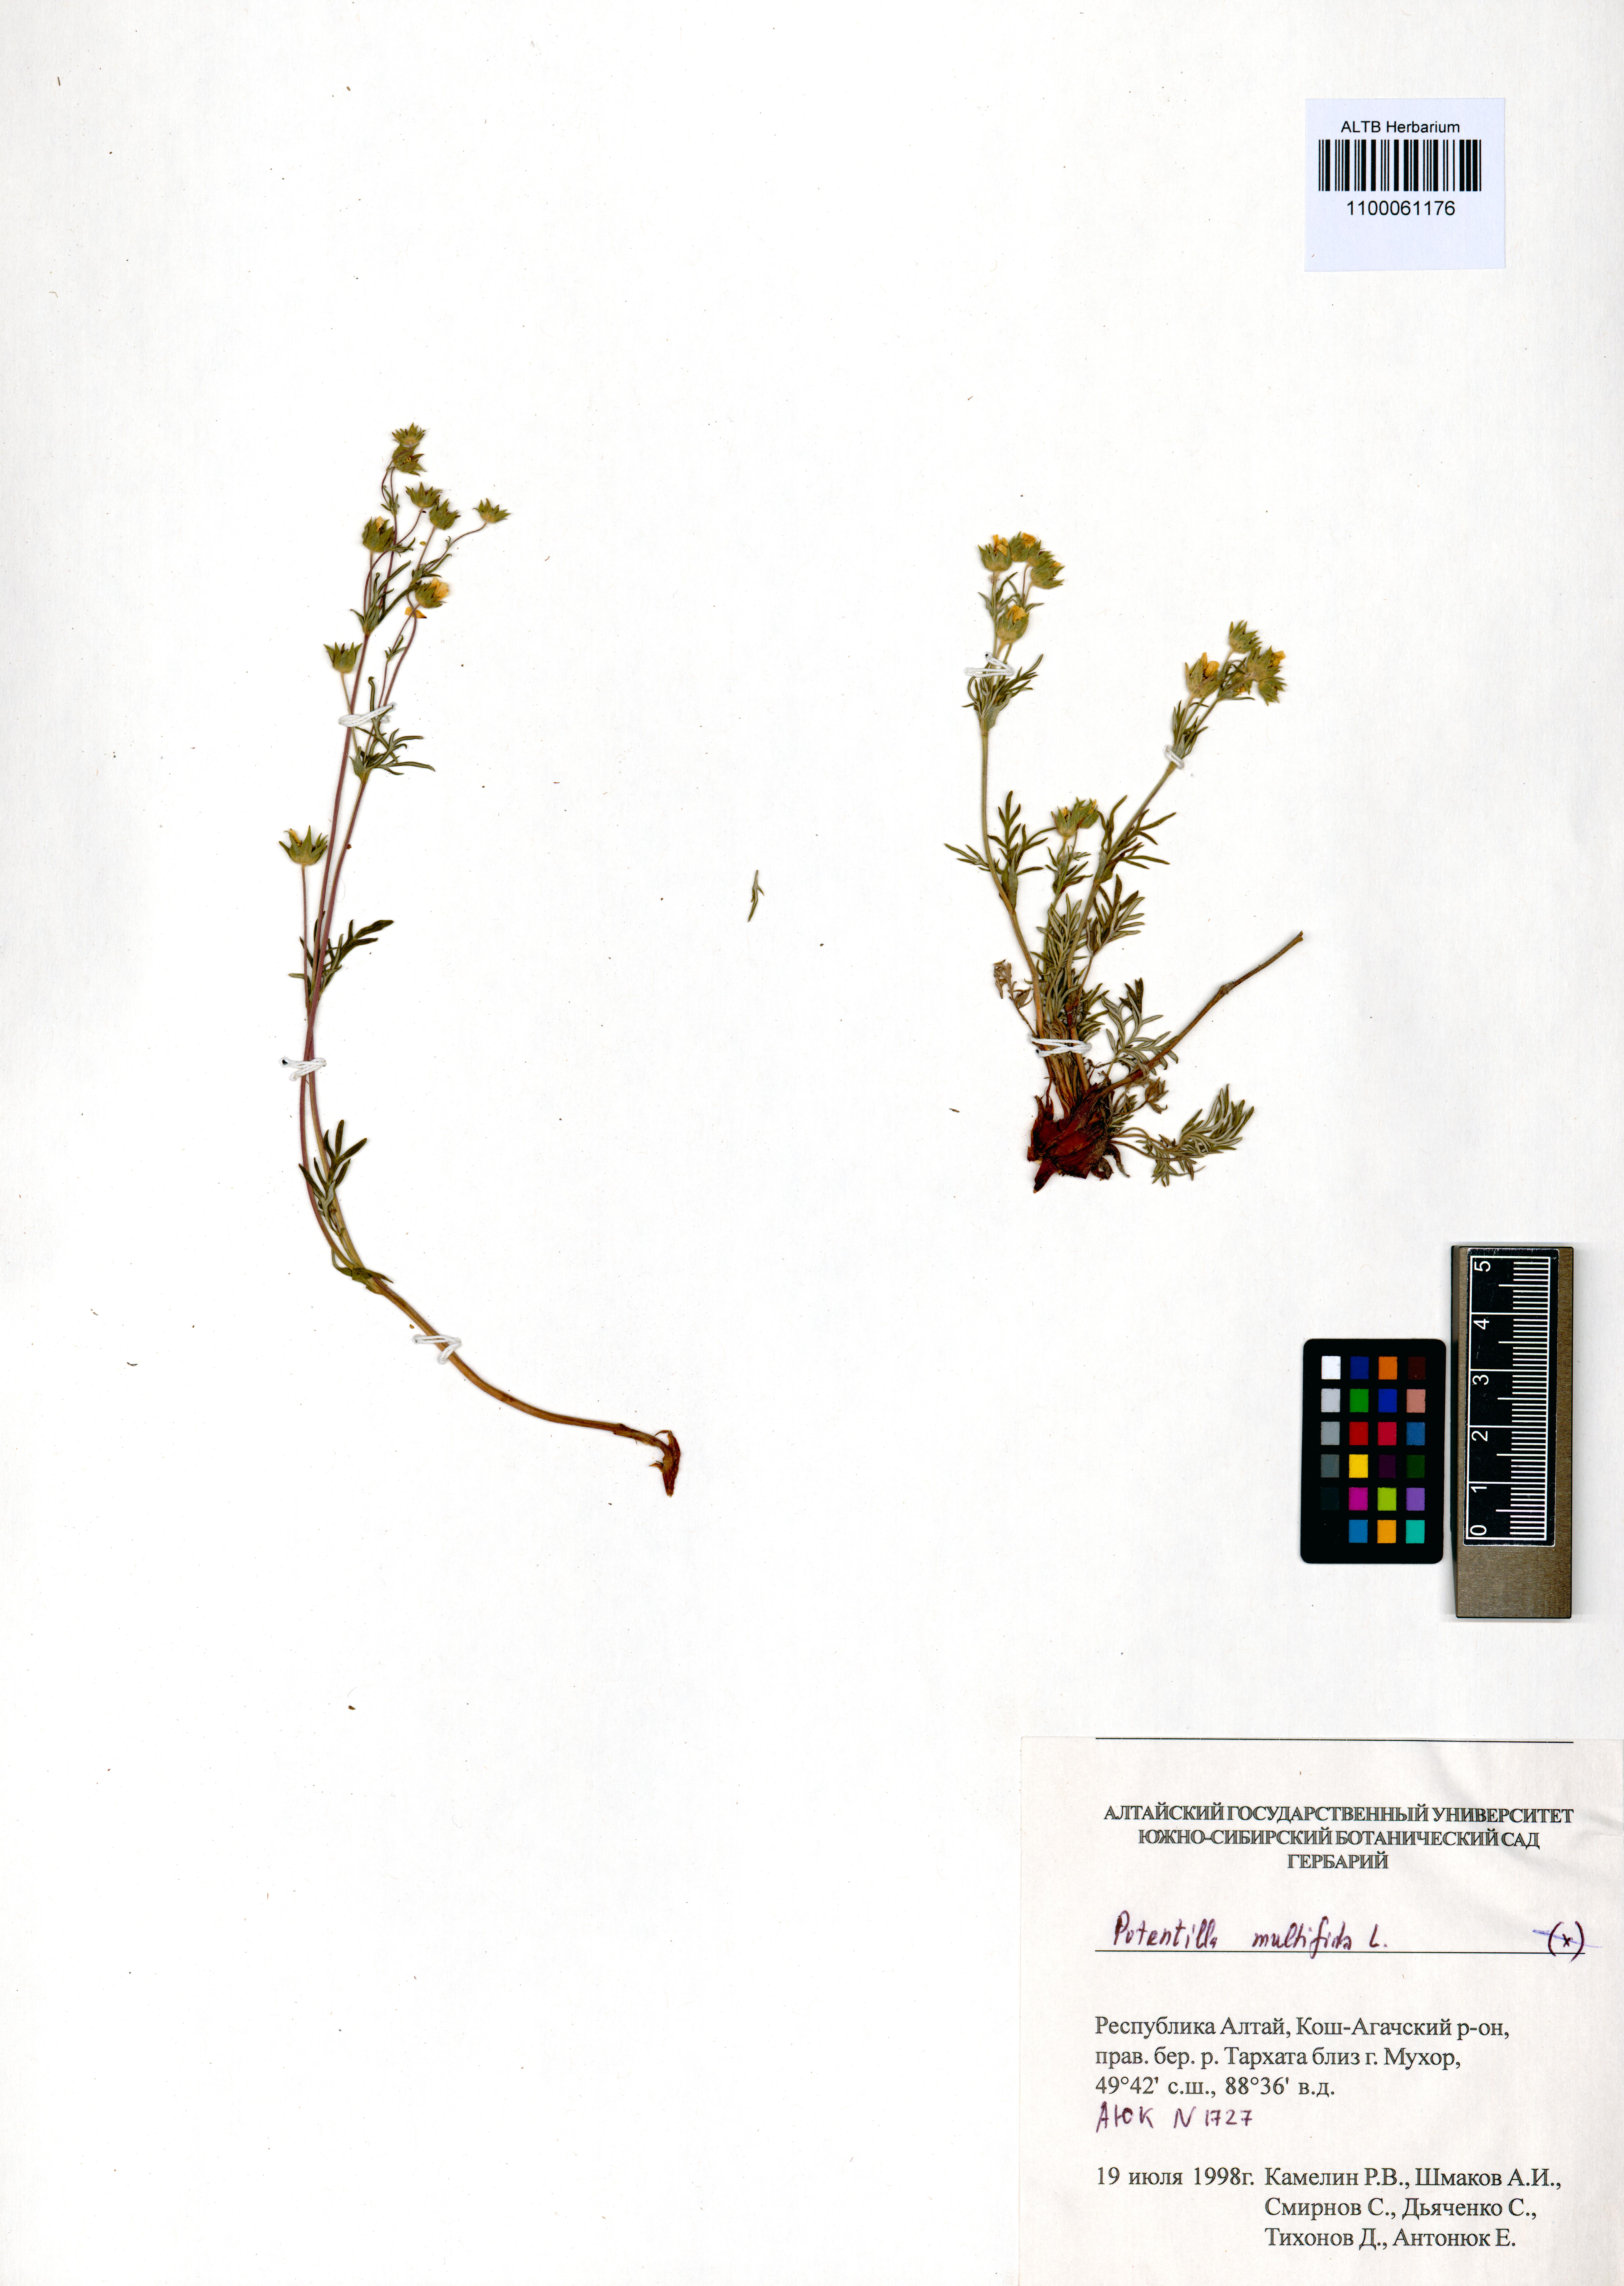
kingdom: Plantae
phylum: Tracheophyta
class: Magnoliopsida
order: Rosales
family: Rosaceae
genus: Potentilla
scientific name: Potentilla multifida
